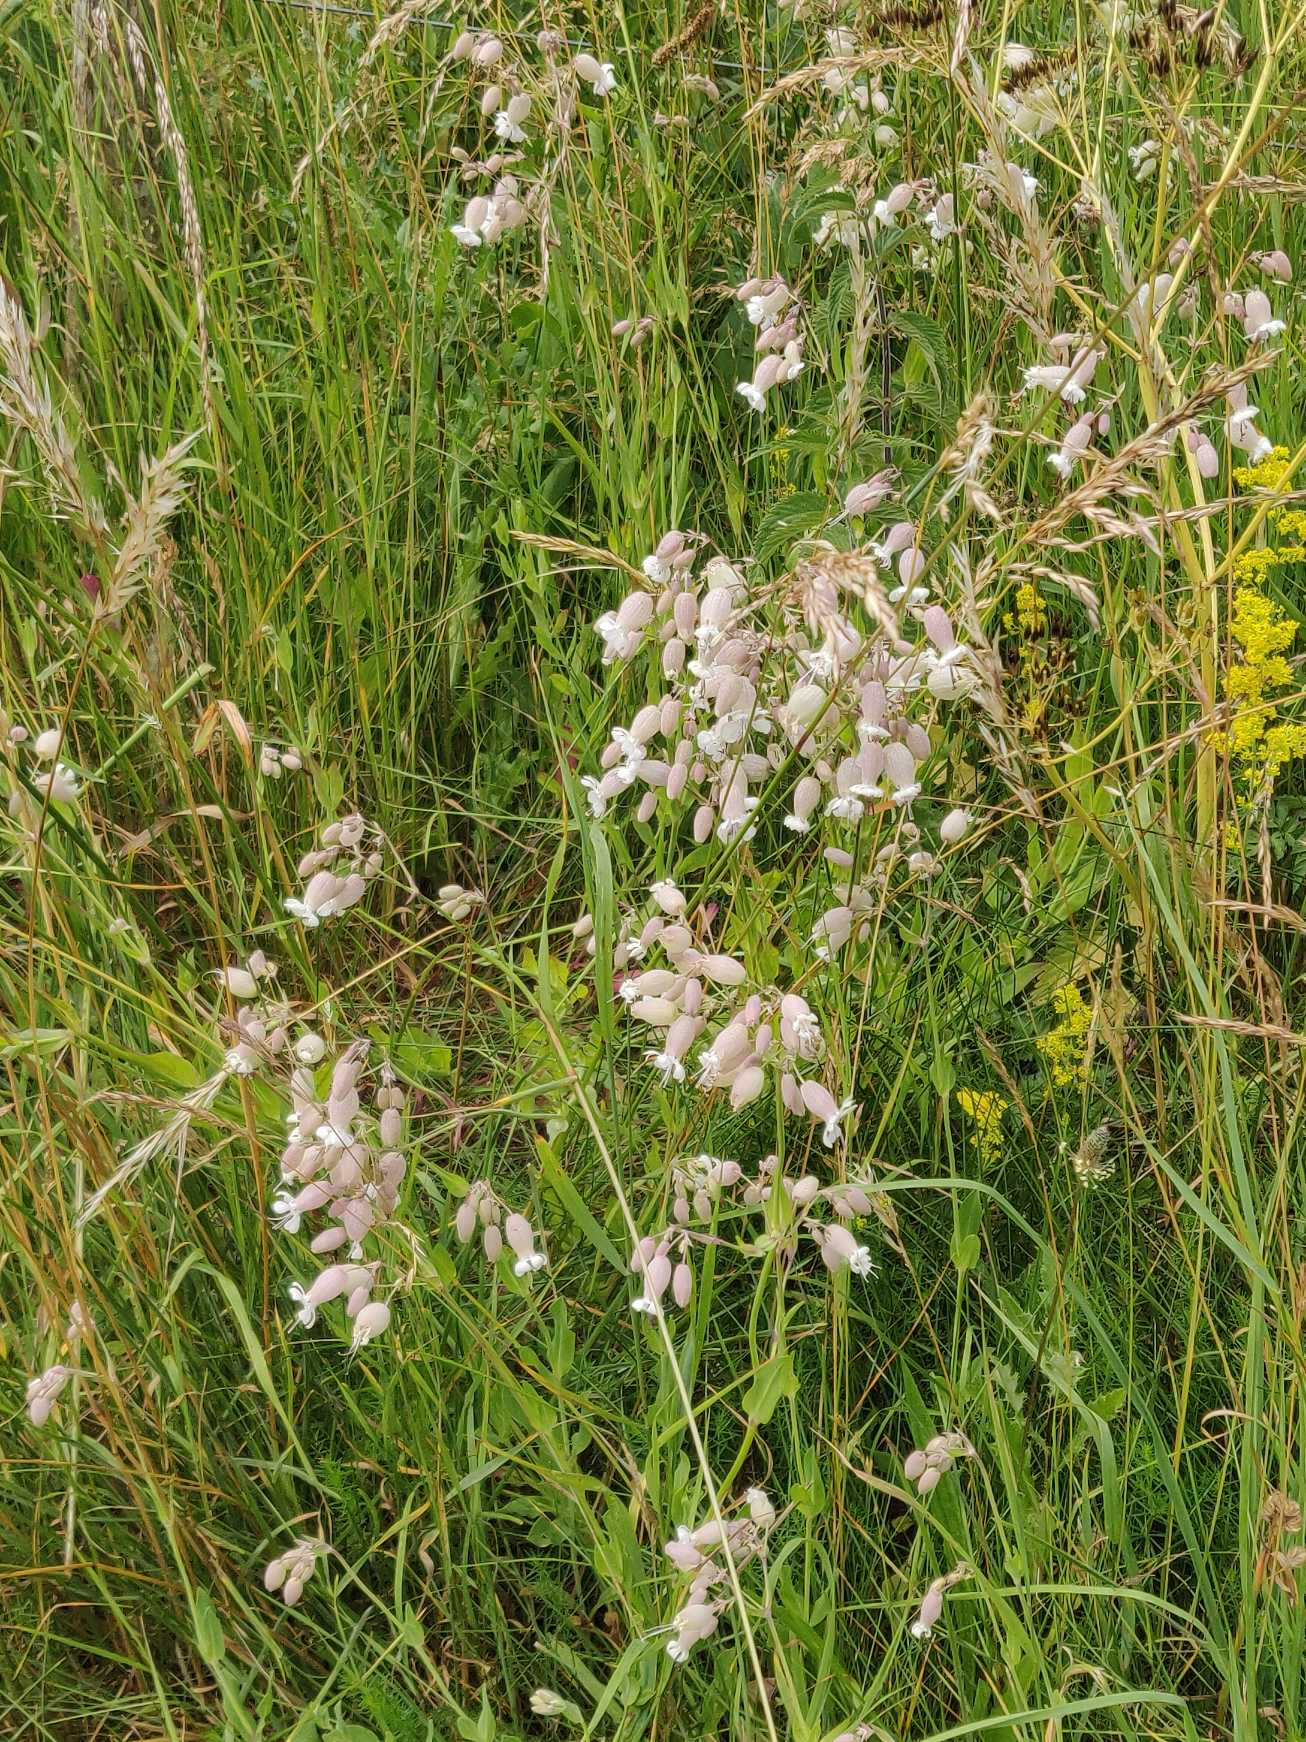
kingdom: Plantae
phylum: Tracheophyta
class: Magnoliopsida
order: Caryophyllales
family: Caryophyllaceae
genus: Silene
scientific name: Silene vulgaris
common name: Blæresmælde
